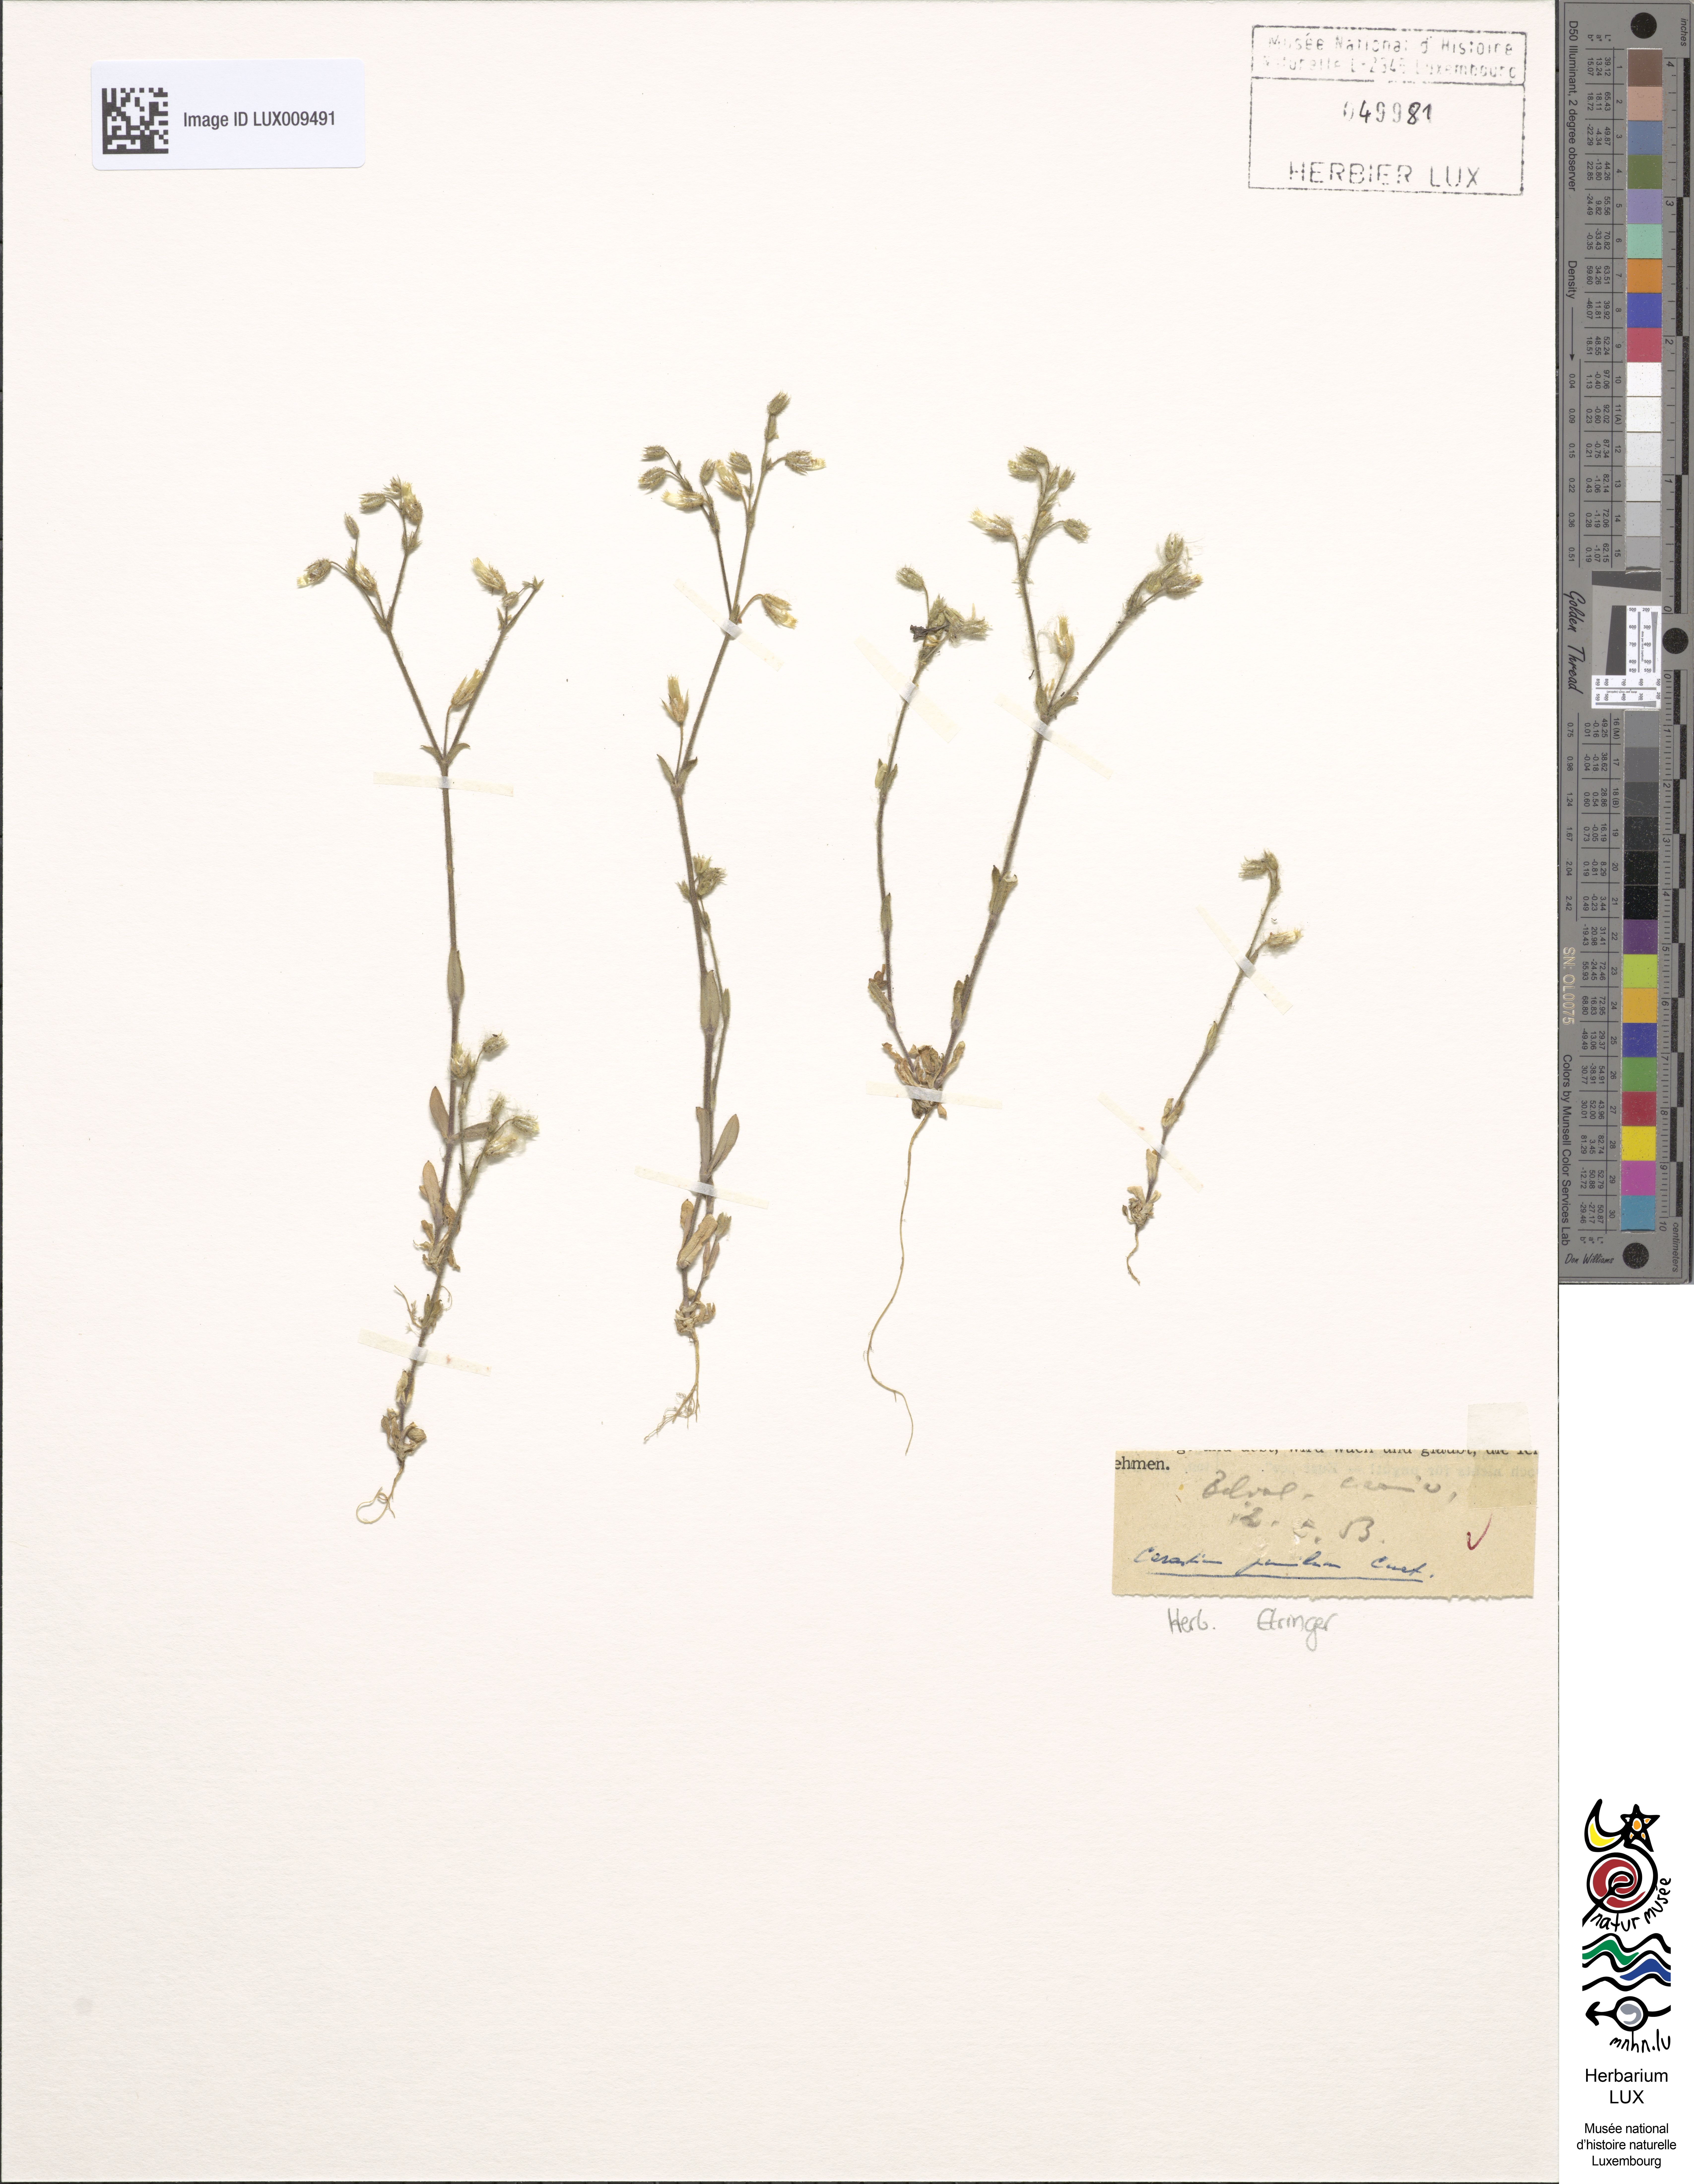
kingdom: Plantae
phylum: Tracheophyta
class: Magnoliopsida
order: Caryophyllales
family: Caryophyllaceae
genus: Cerastium
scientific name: Cerastium pumilum
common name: Dwarf mouse-ear
